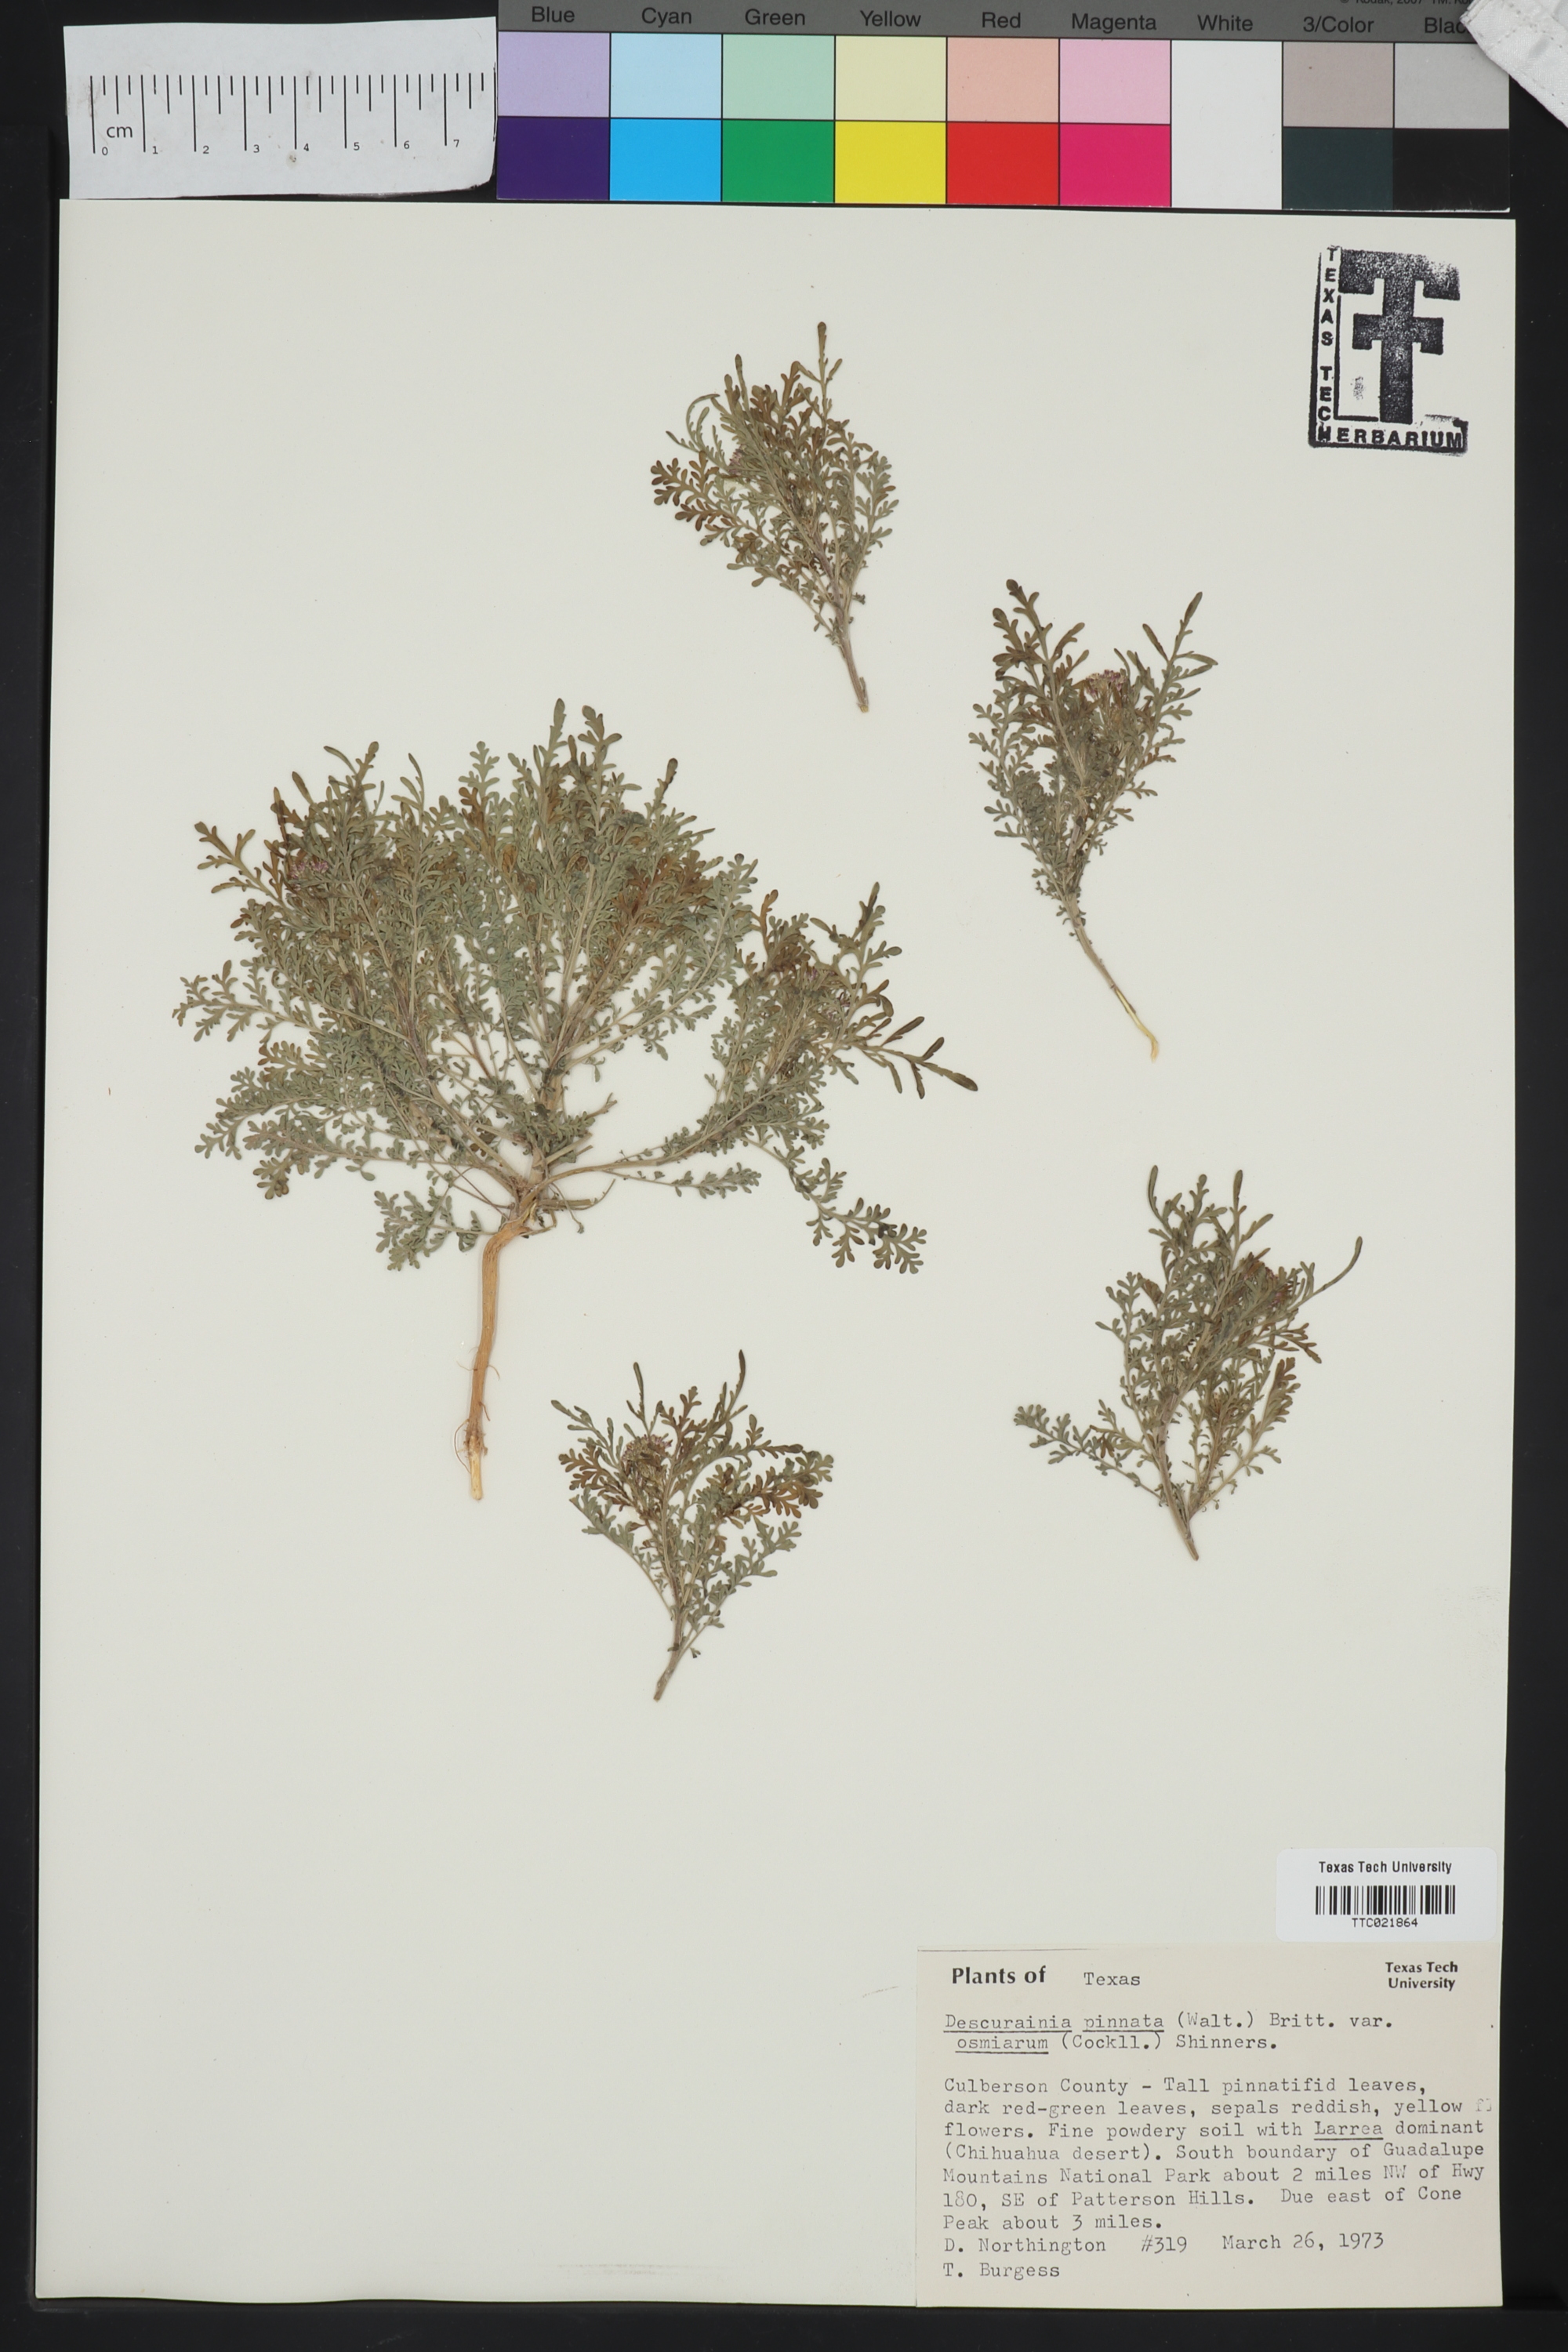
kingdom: Plantae
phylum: Tracheophyta
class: Magnoliopsida
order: Brassicales
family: Brassicaceae
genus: Descurainia
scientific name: Descurainia pinnata
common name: Western tansy mustard
